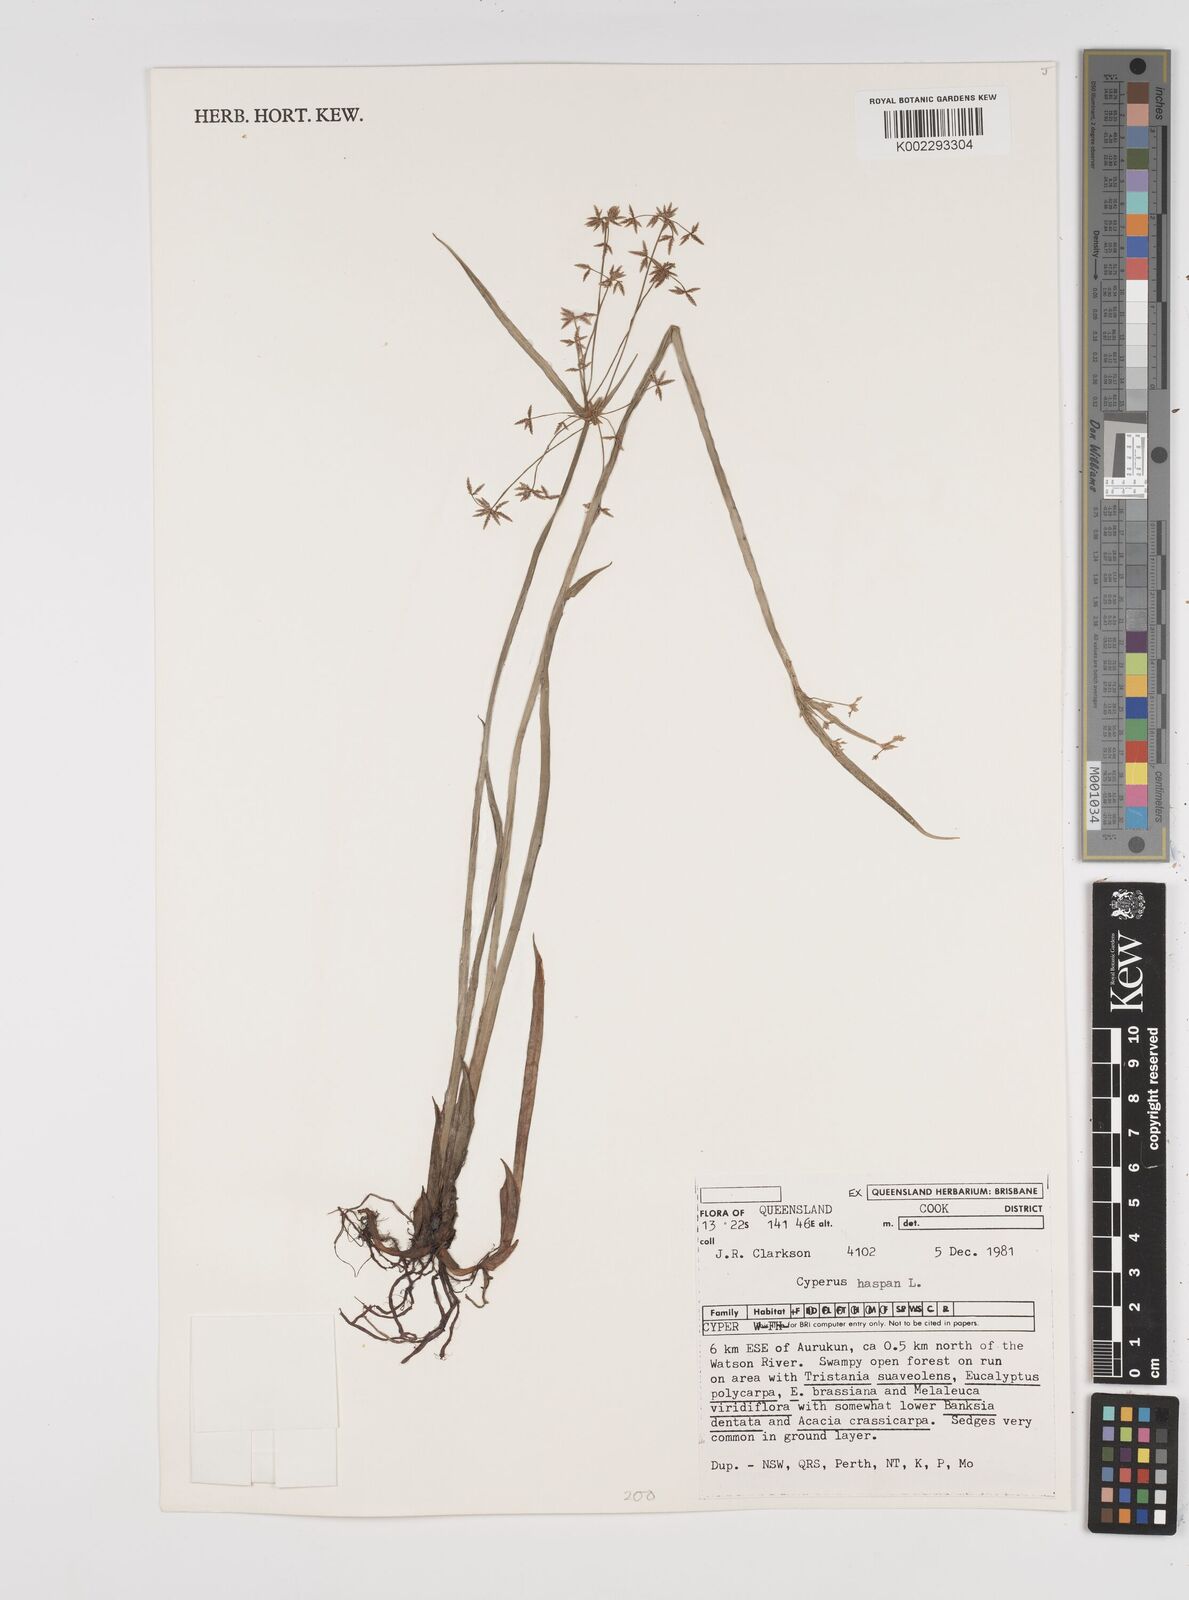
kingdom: Plantae
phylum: Tracheophyta
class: Liliopsida
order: Poales
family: Cyperaceae
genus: Cyperus
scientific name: Cyperus haspan
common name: Haspan flatsedge
